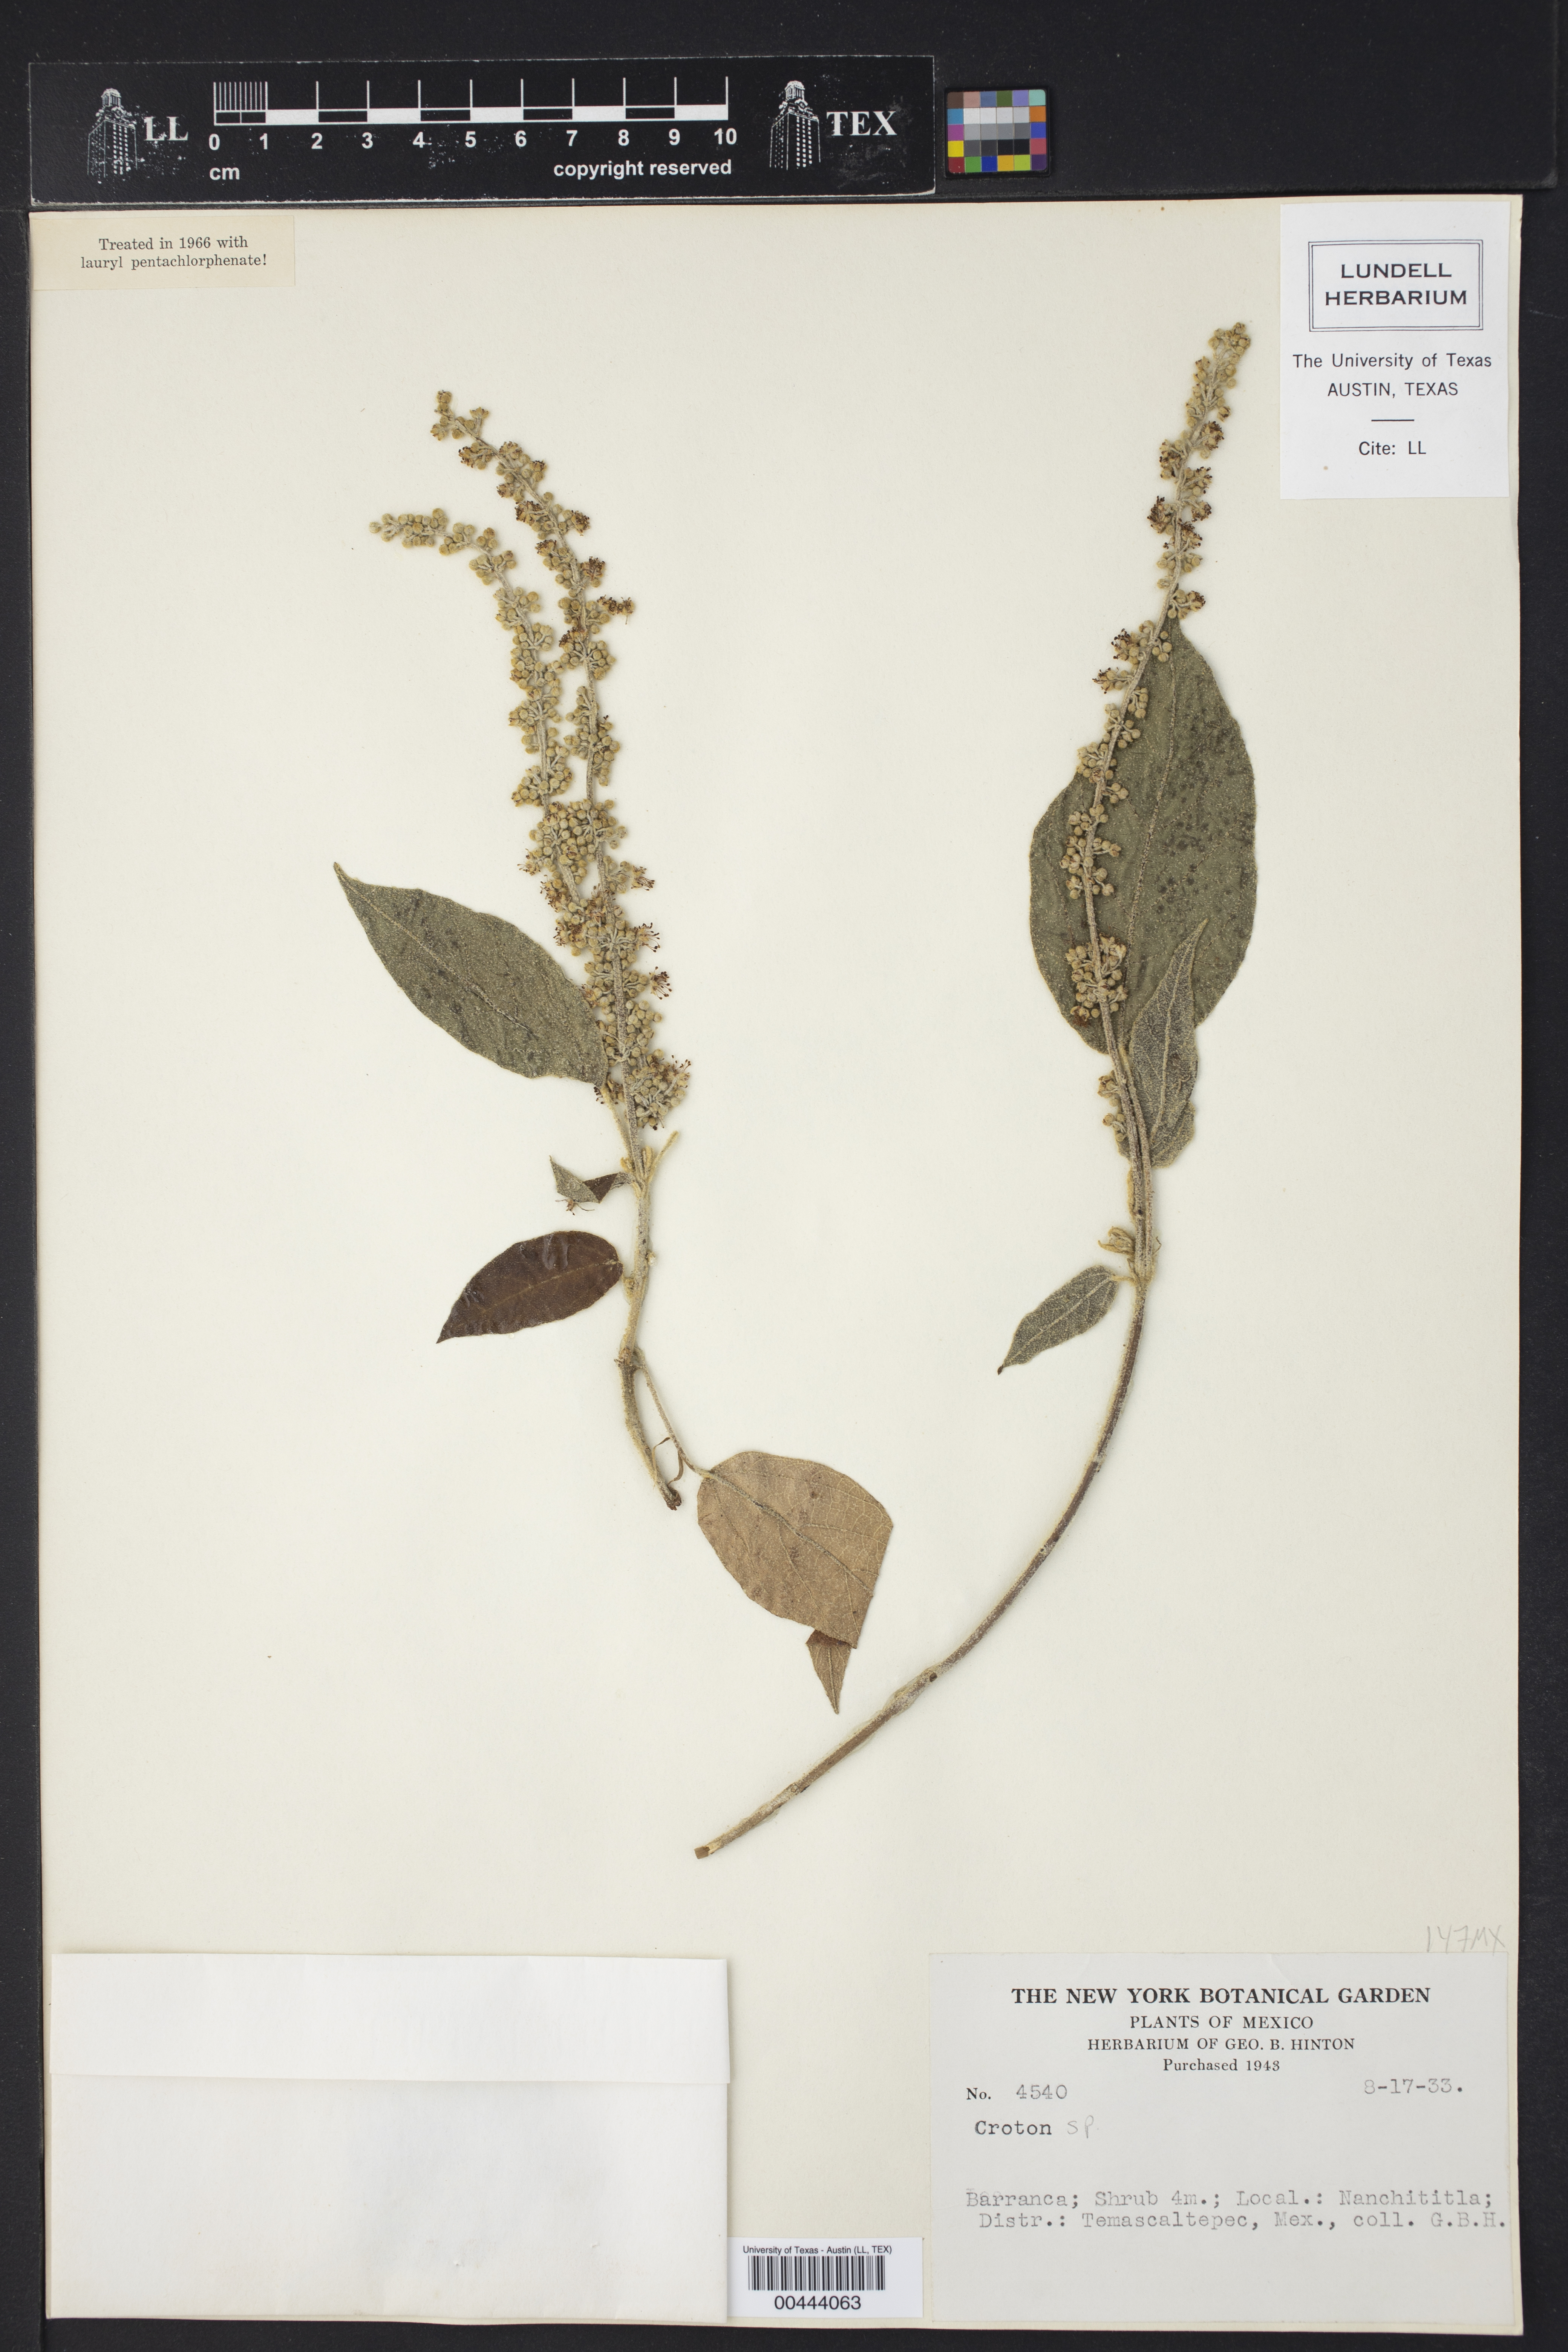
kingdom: Plantae
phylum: Tracheophyta
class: Magnoliopsida
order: Malpighiales
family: Euphorbiaceae
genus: Croton
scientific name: Croton
